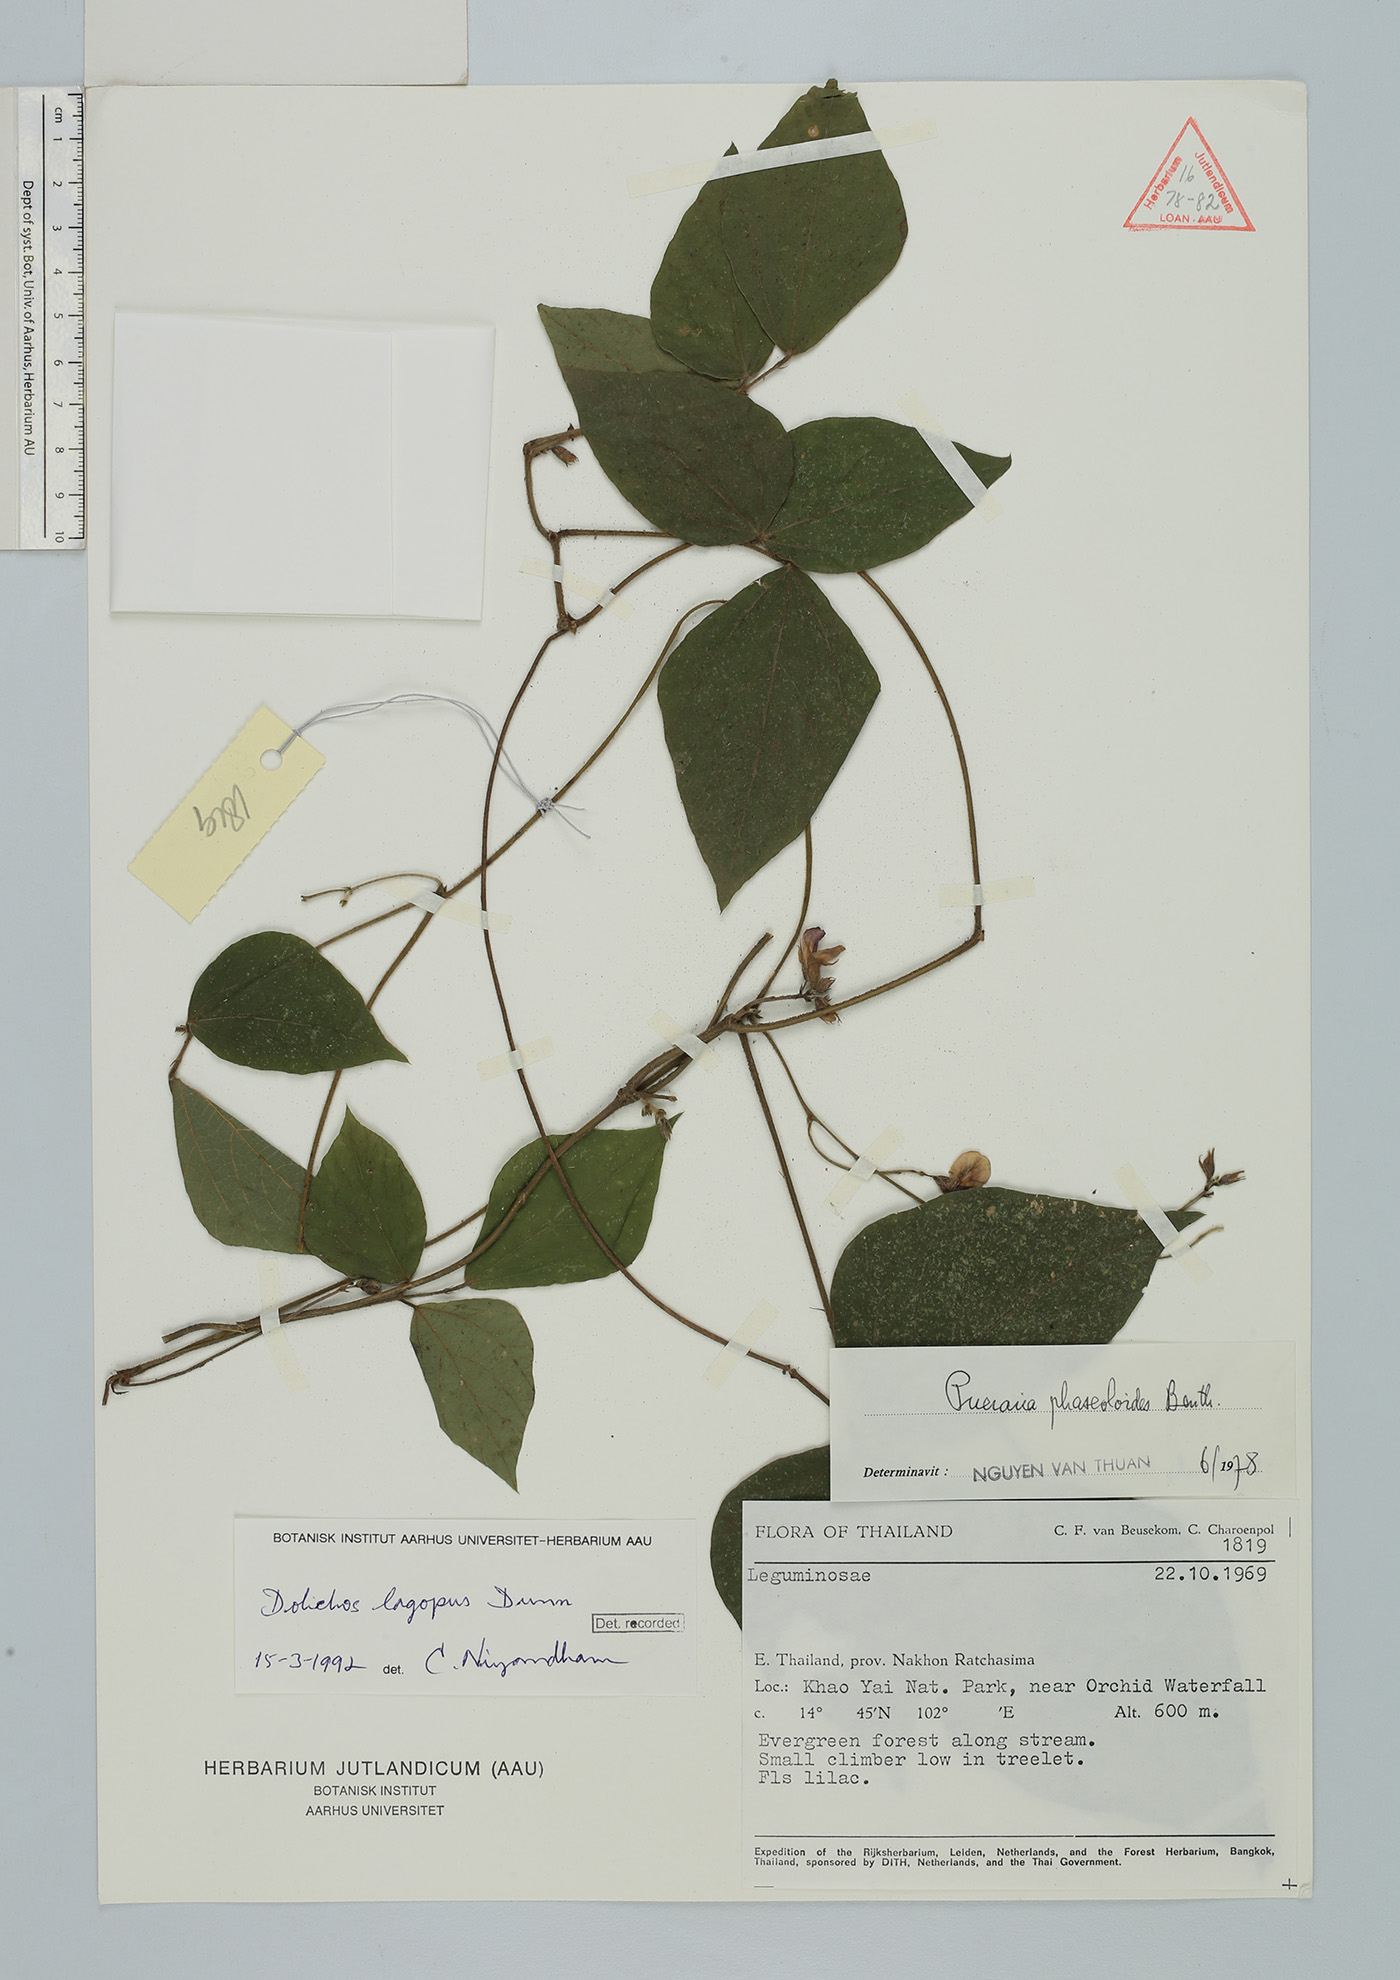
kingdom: Plantae
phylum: Tracheophyta
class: Magnoliopsida
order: Fabales
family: Fabaceae
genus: Sinodolichos
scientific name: Sinodolichos lagopus
